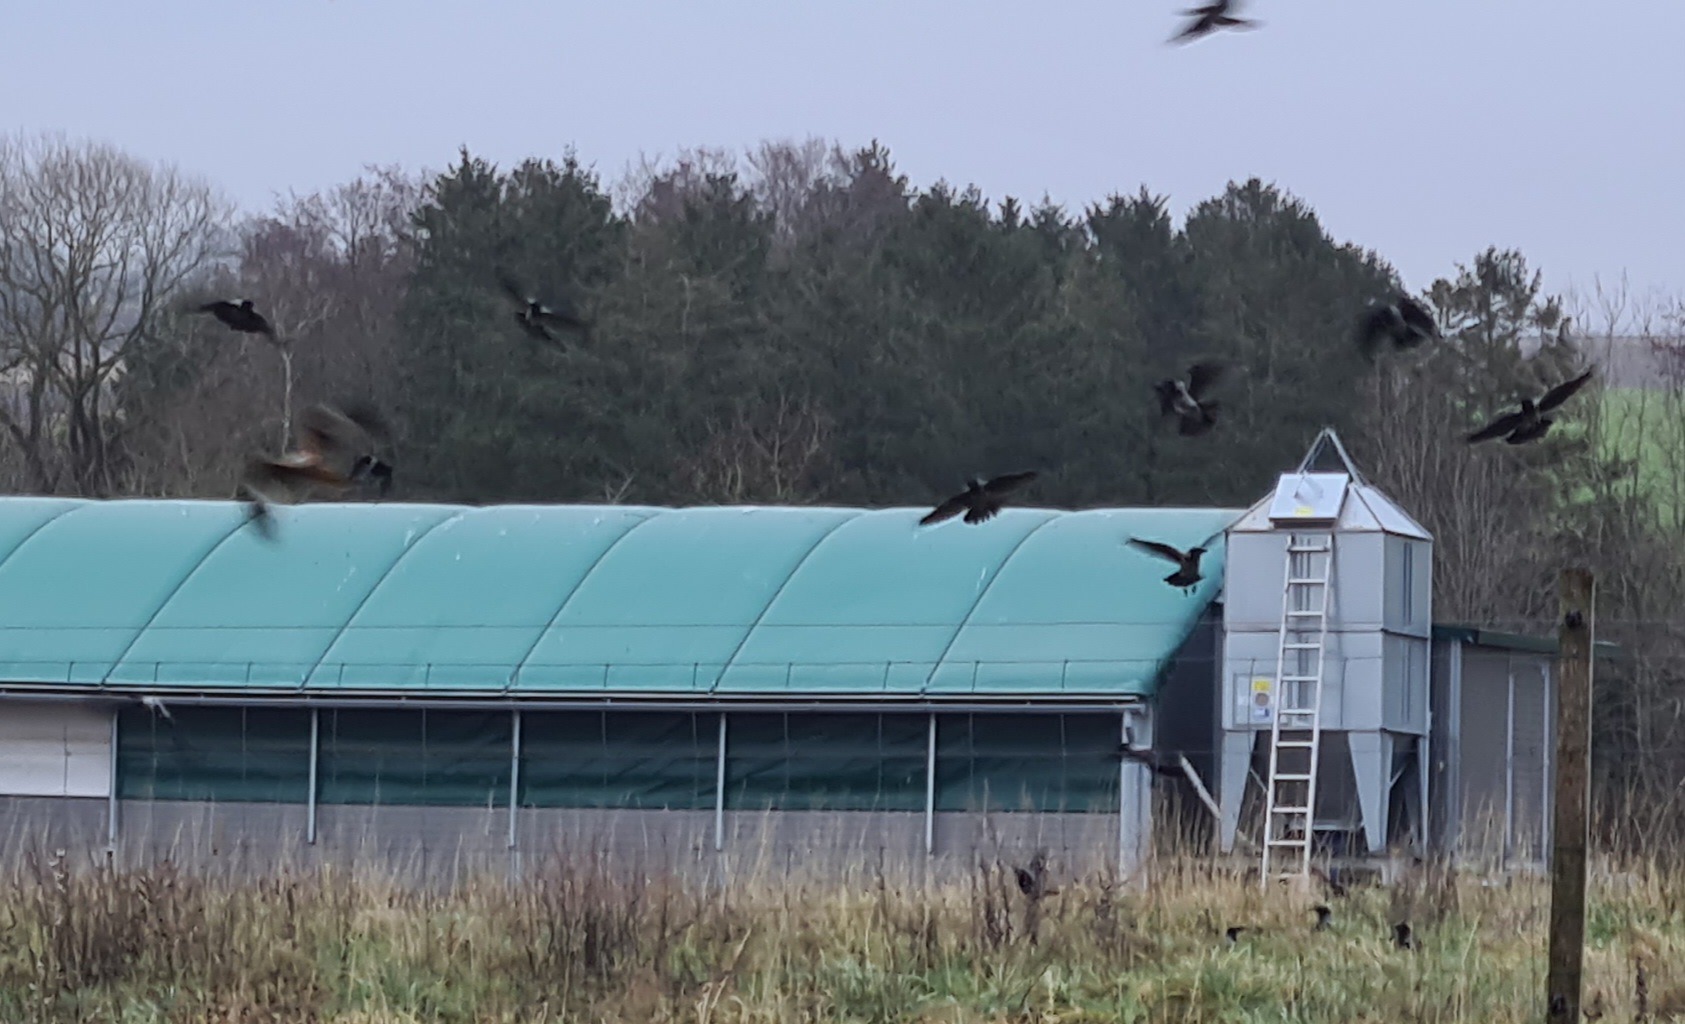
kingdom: Animalia
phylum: Chordata
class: Aves
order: Accipitriformes
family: Accipitridae
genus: Milvus
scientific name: Milvus milvus
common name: Rød glente
